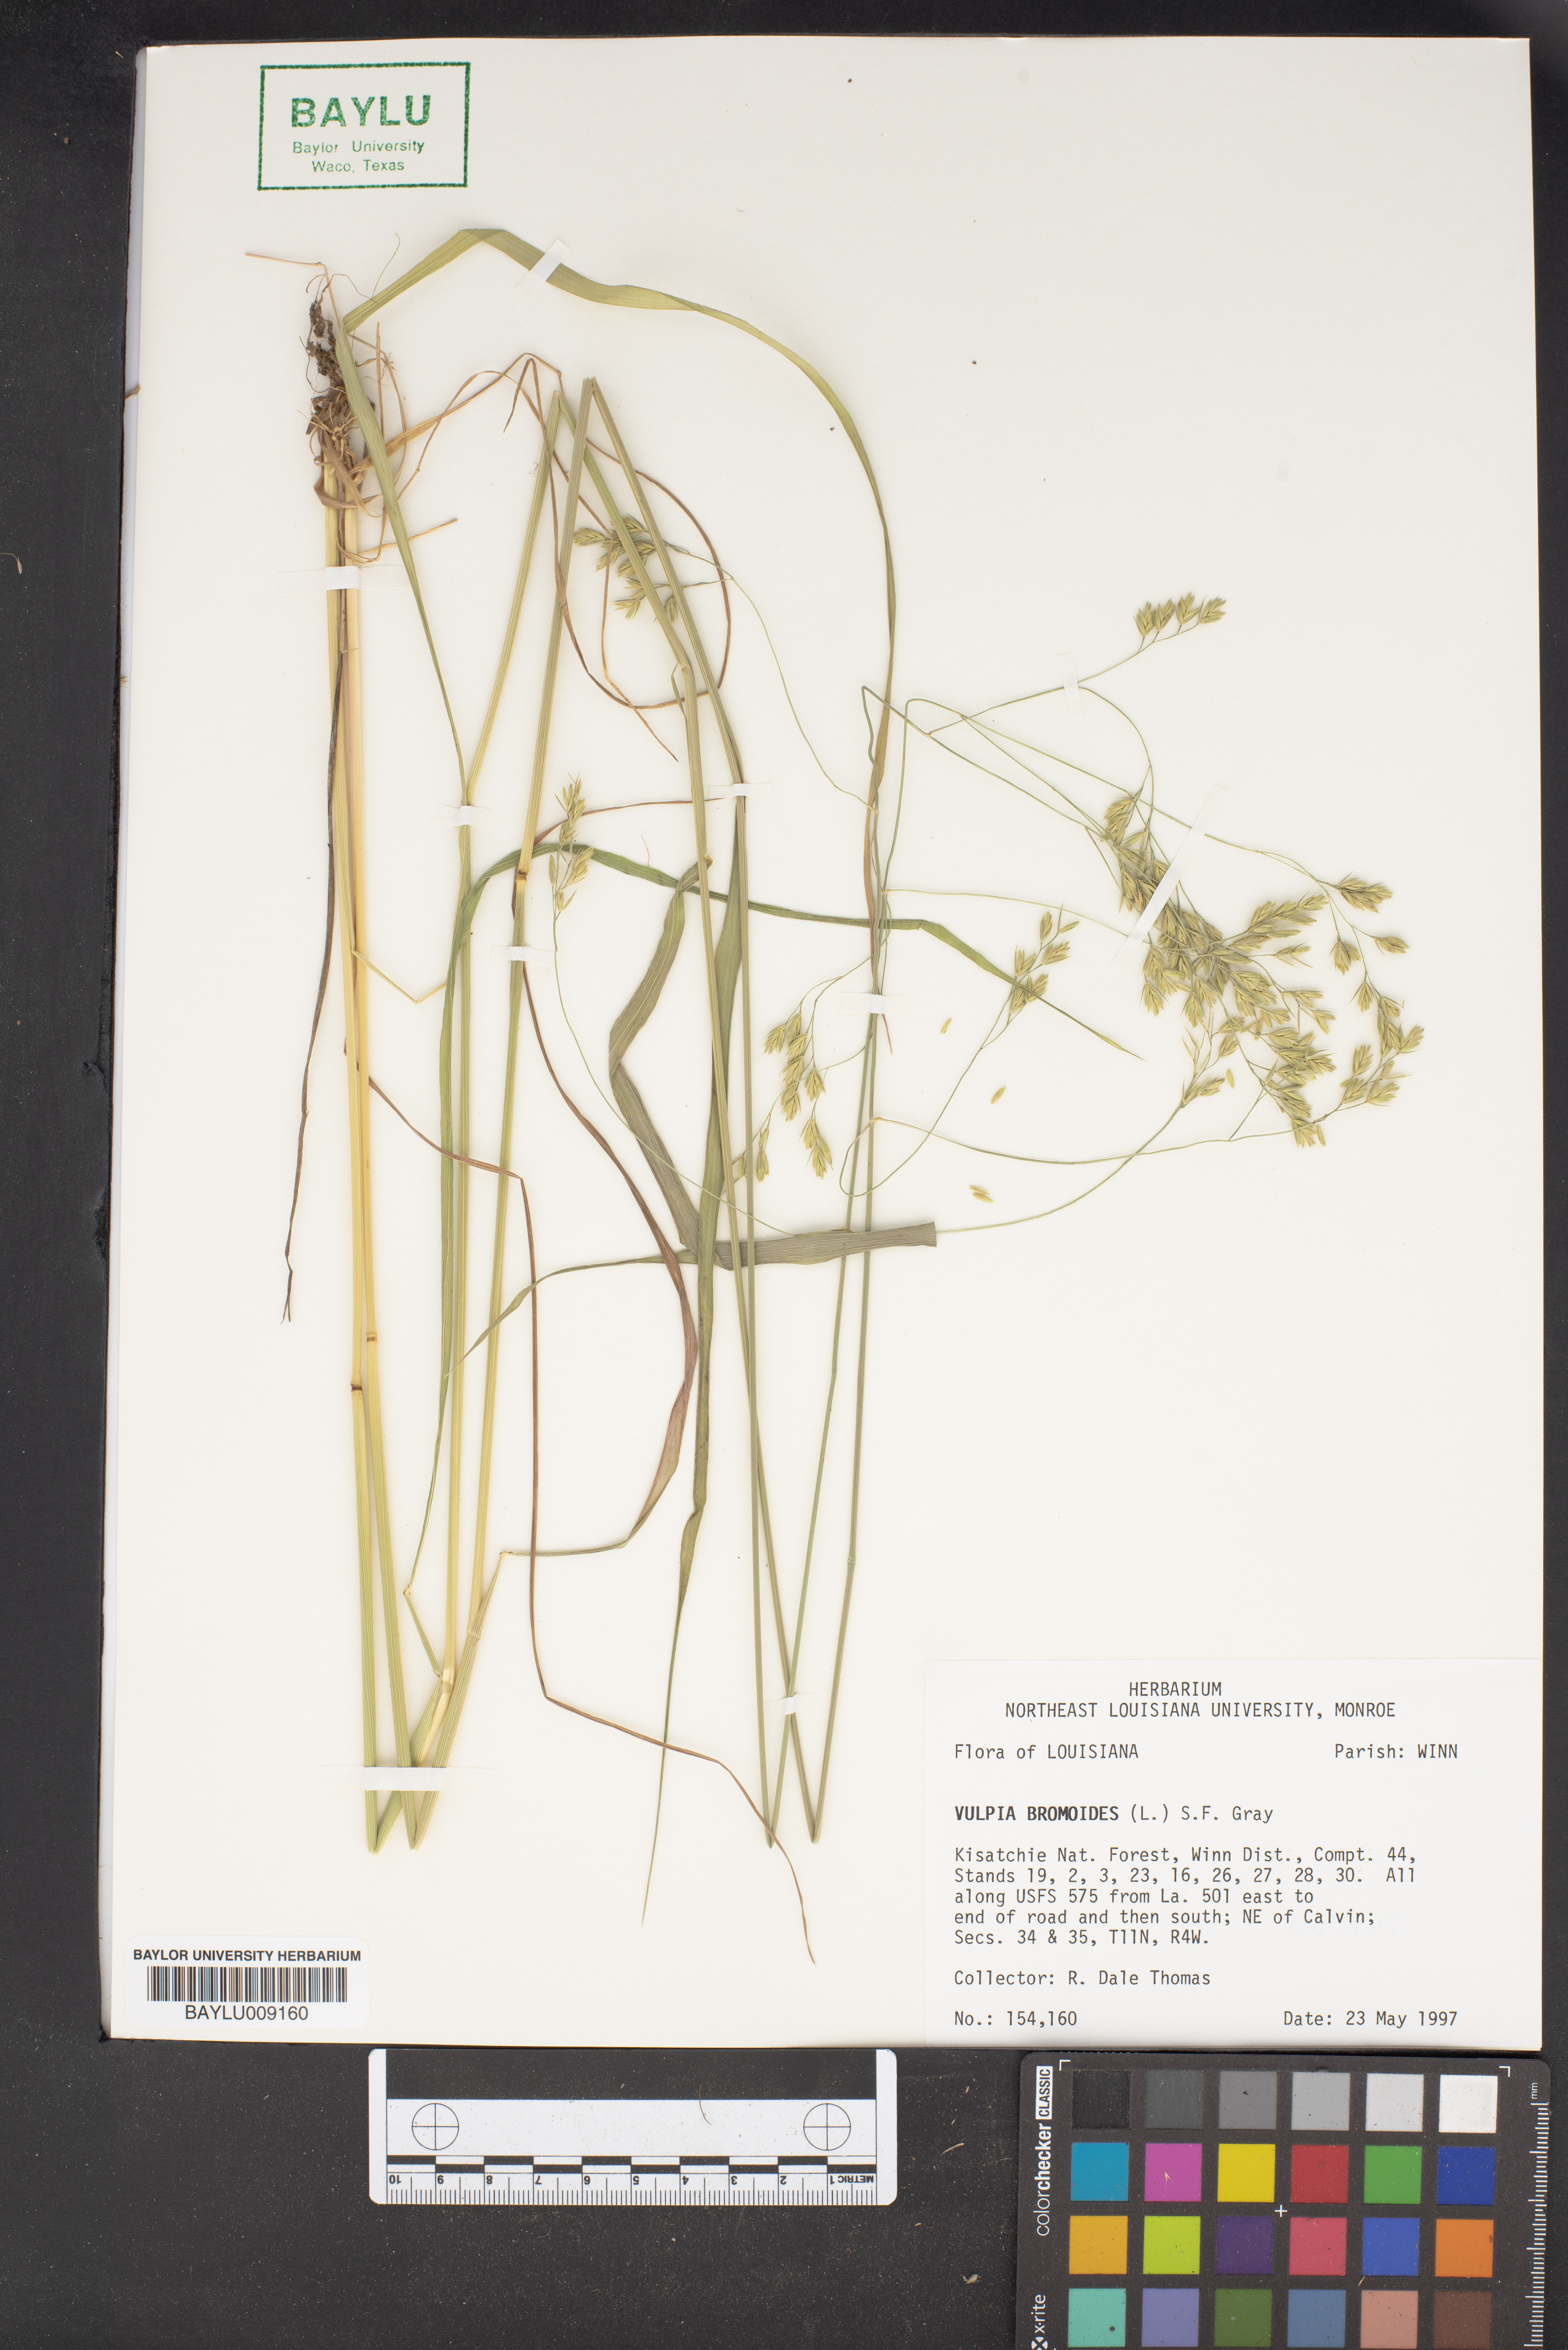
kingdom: Plantae
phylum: Tracheophyta
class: Liliopsida
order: Poales
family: Poaceae
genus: Festuca
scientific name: Festuca bromoides
